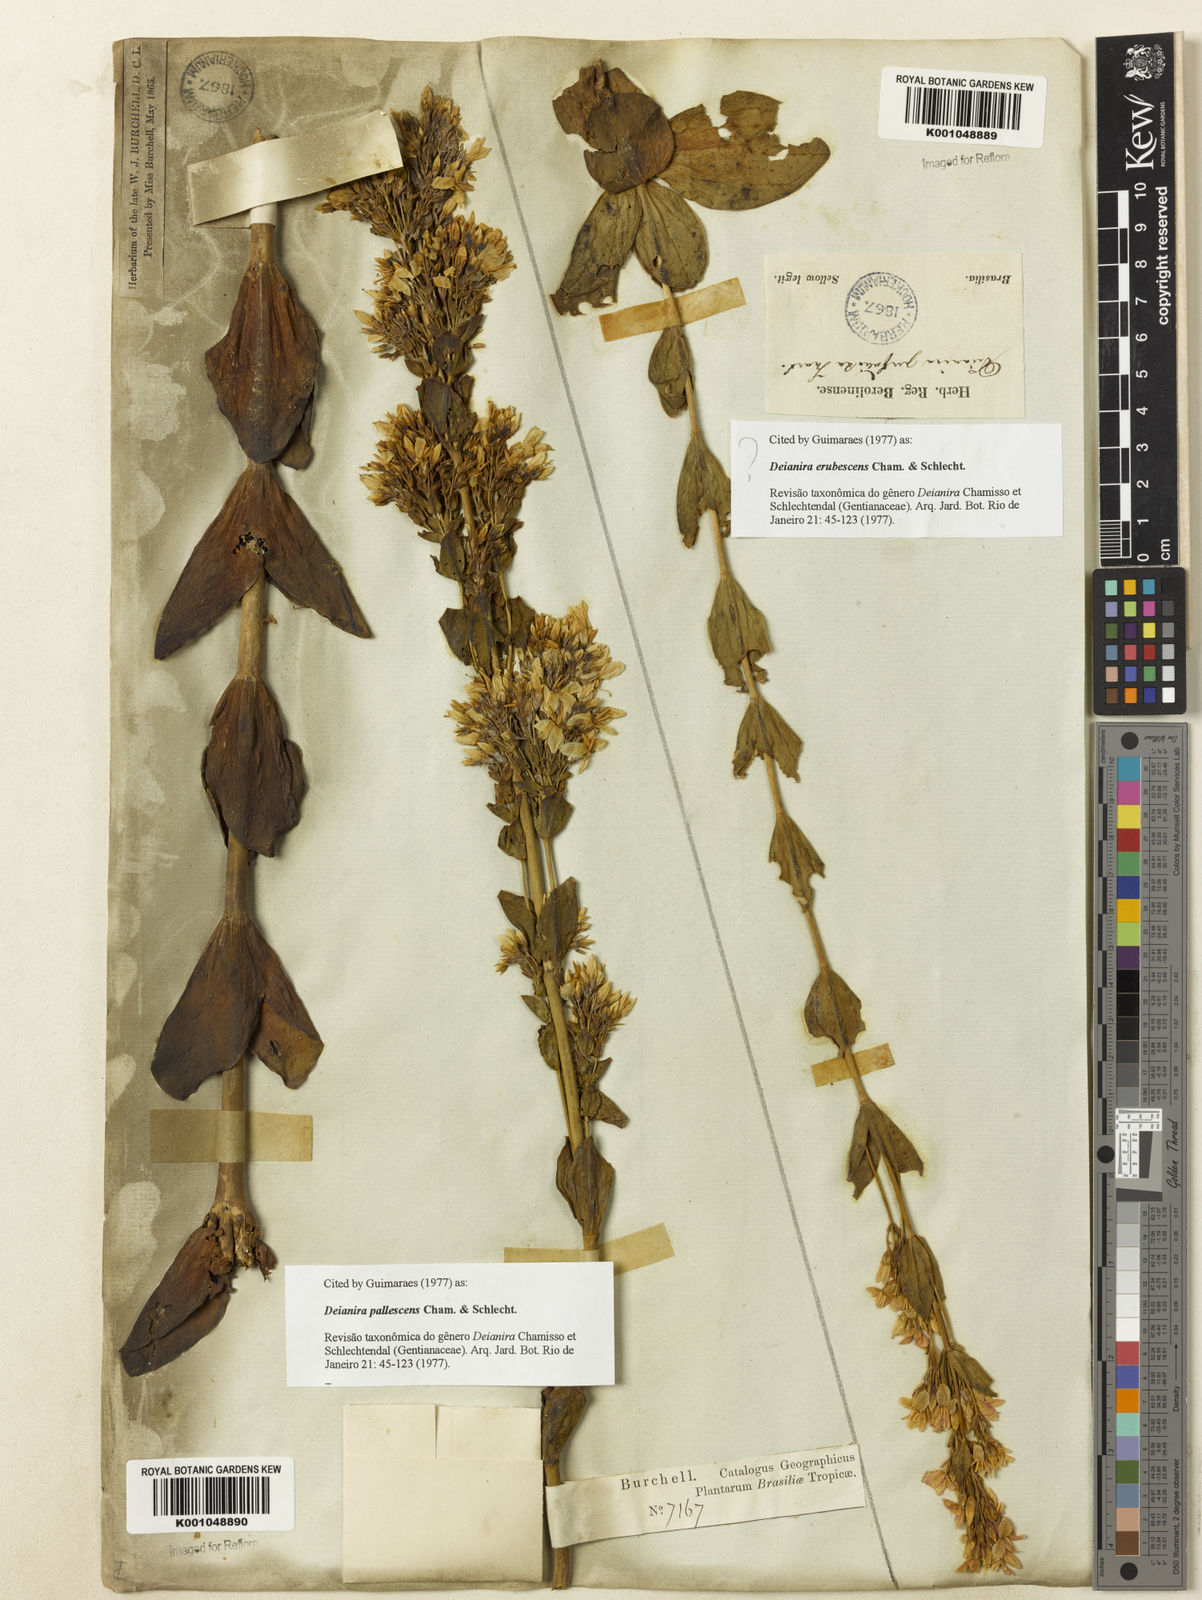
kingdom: Plantae
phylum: Tracheophyta
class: Magnoliopsida
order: Gentianales
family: Gentianaceae
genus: Deianira
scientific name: Deianira erubescens
